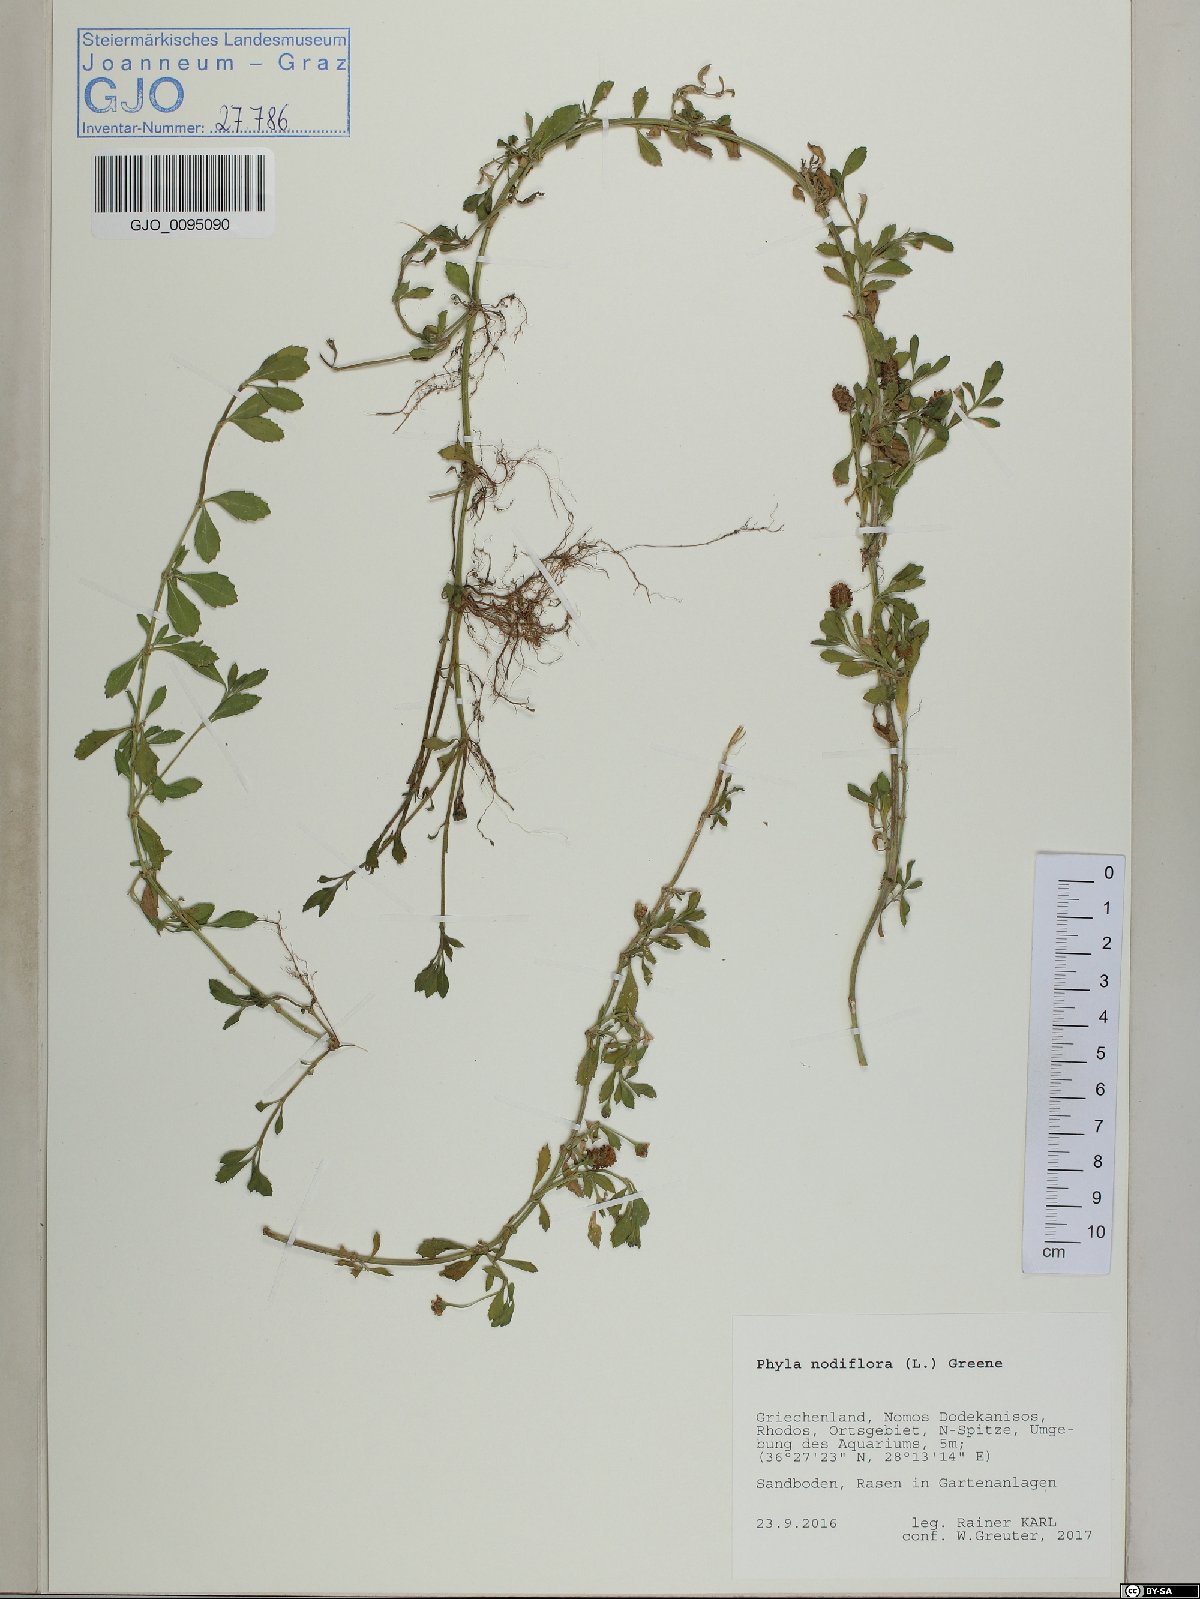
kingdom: Plantae
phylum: Tracheophyta
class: Magnoliopsida
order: Lamiales
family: Verbenaceae
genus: Phyla
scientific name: Phyla nodiflora
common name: Frogfruit
